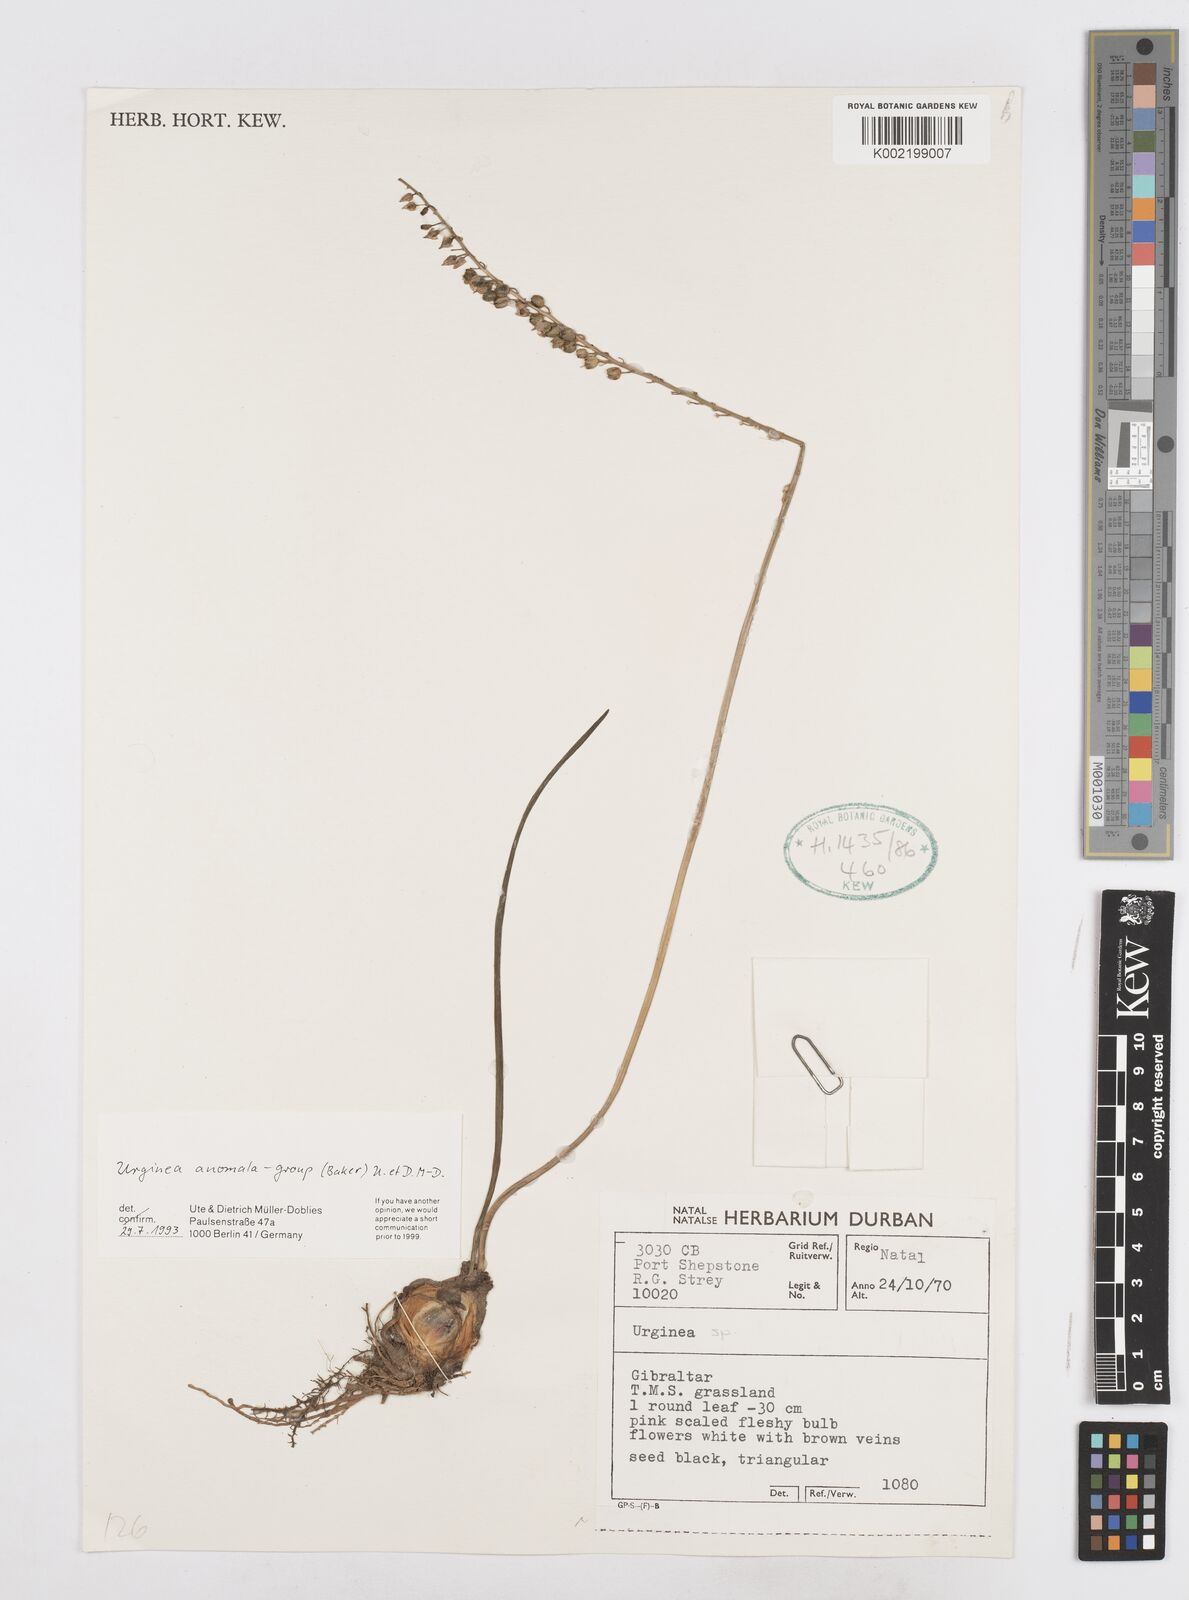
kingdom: Plantae
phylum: Tracheophyta
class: Liliopsida
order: Asparagales
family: Asparagaceae
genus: Drimia
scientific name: Drimia anomala
